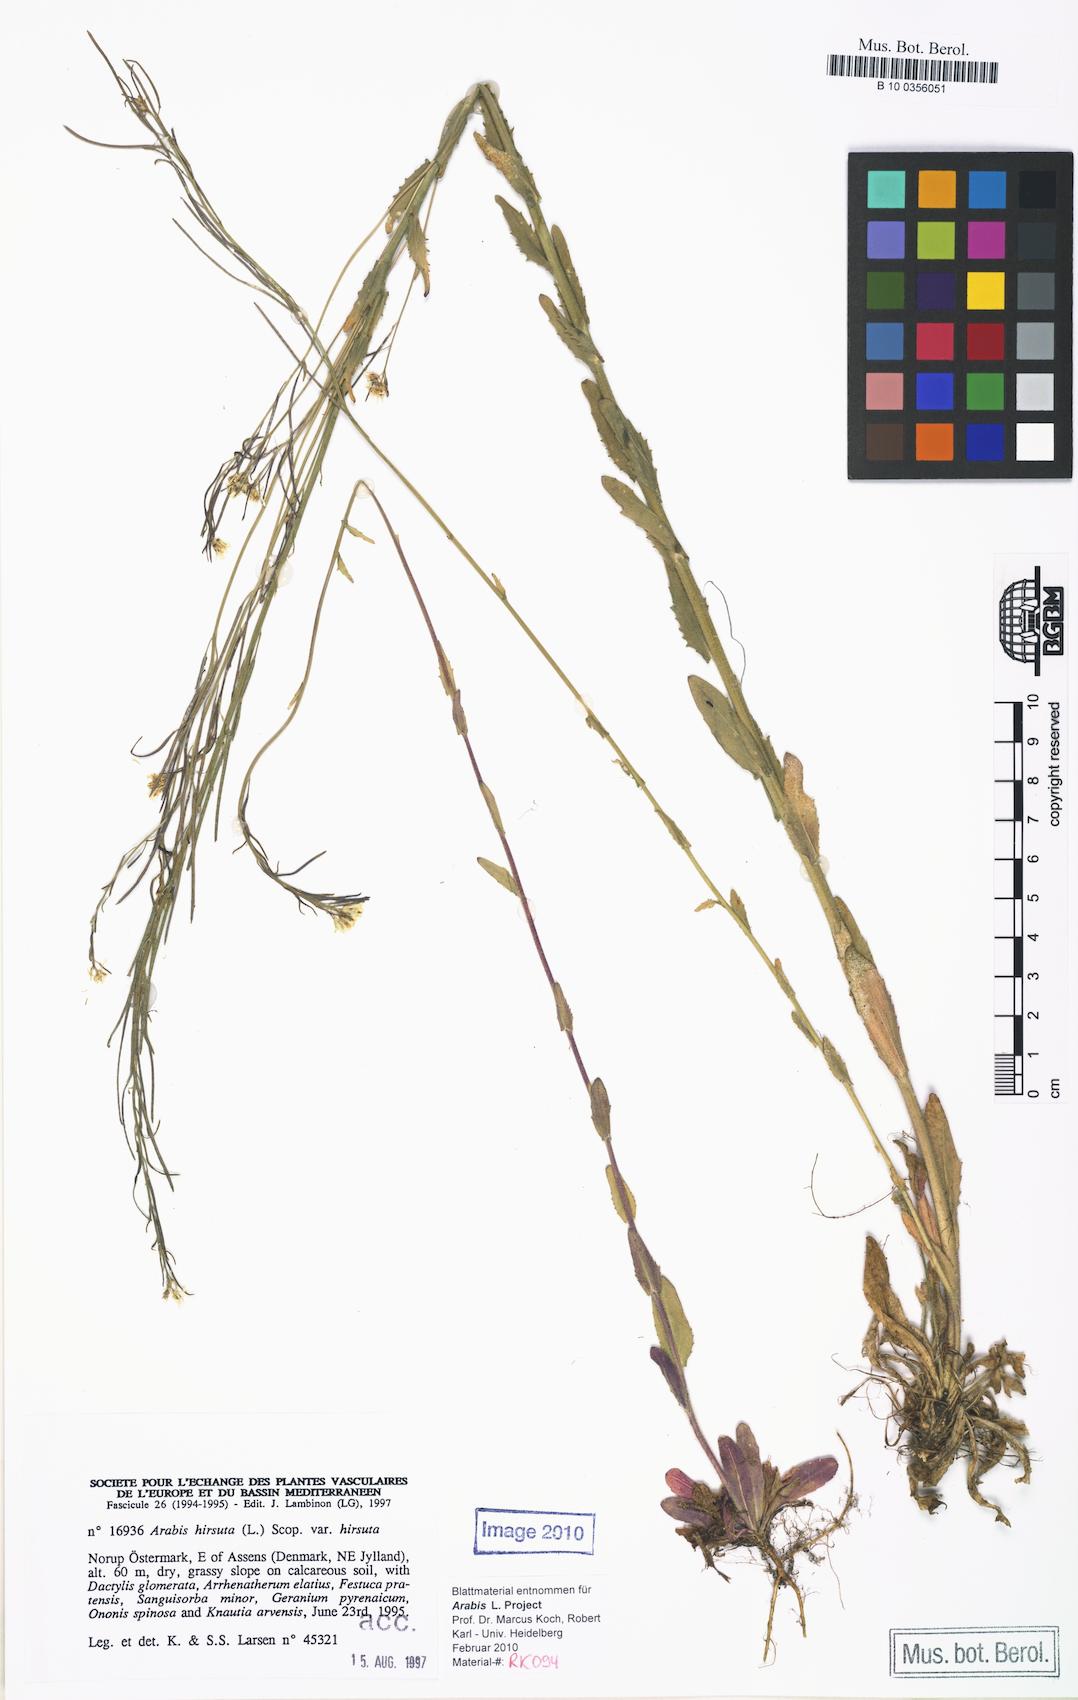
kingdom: Plantae
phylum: Tracheophyta
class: Magnoliopsida
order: Brassicales
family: Brassicaceae
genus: Arabis
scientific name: Arabis hirsuta
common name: Hairy rock-cress
